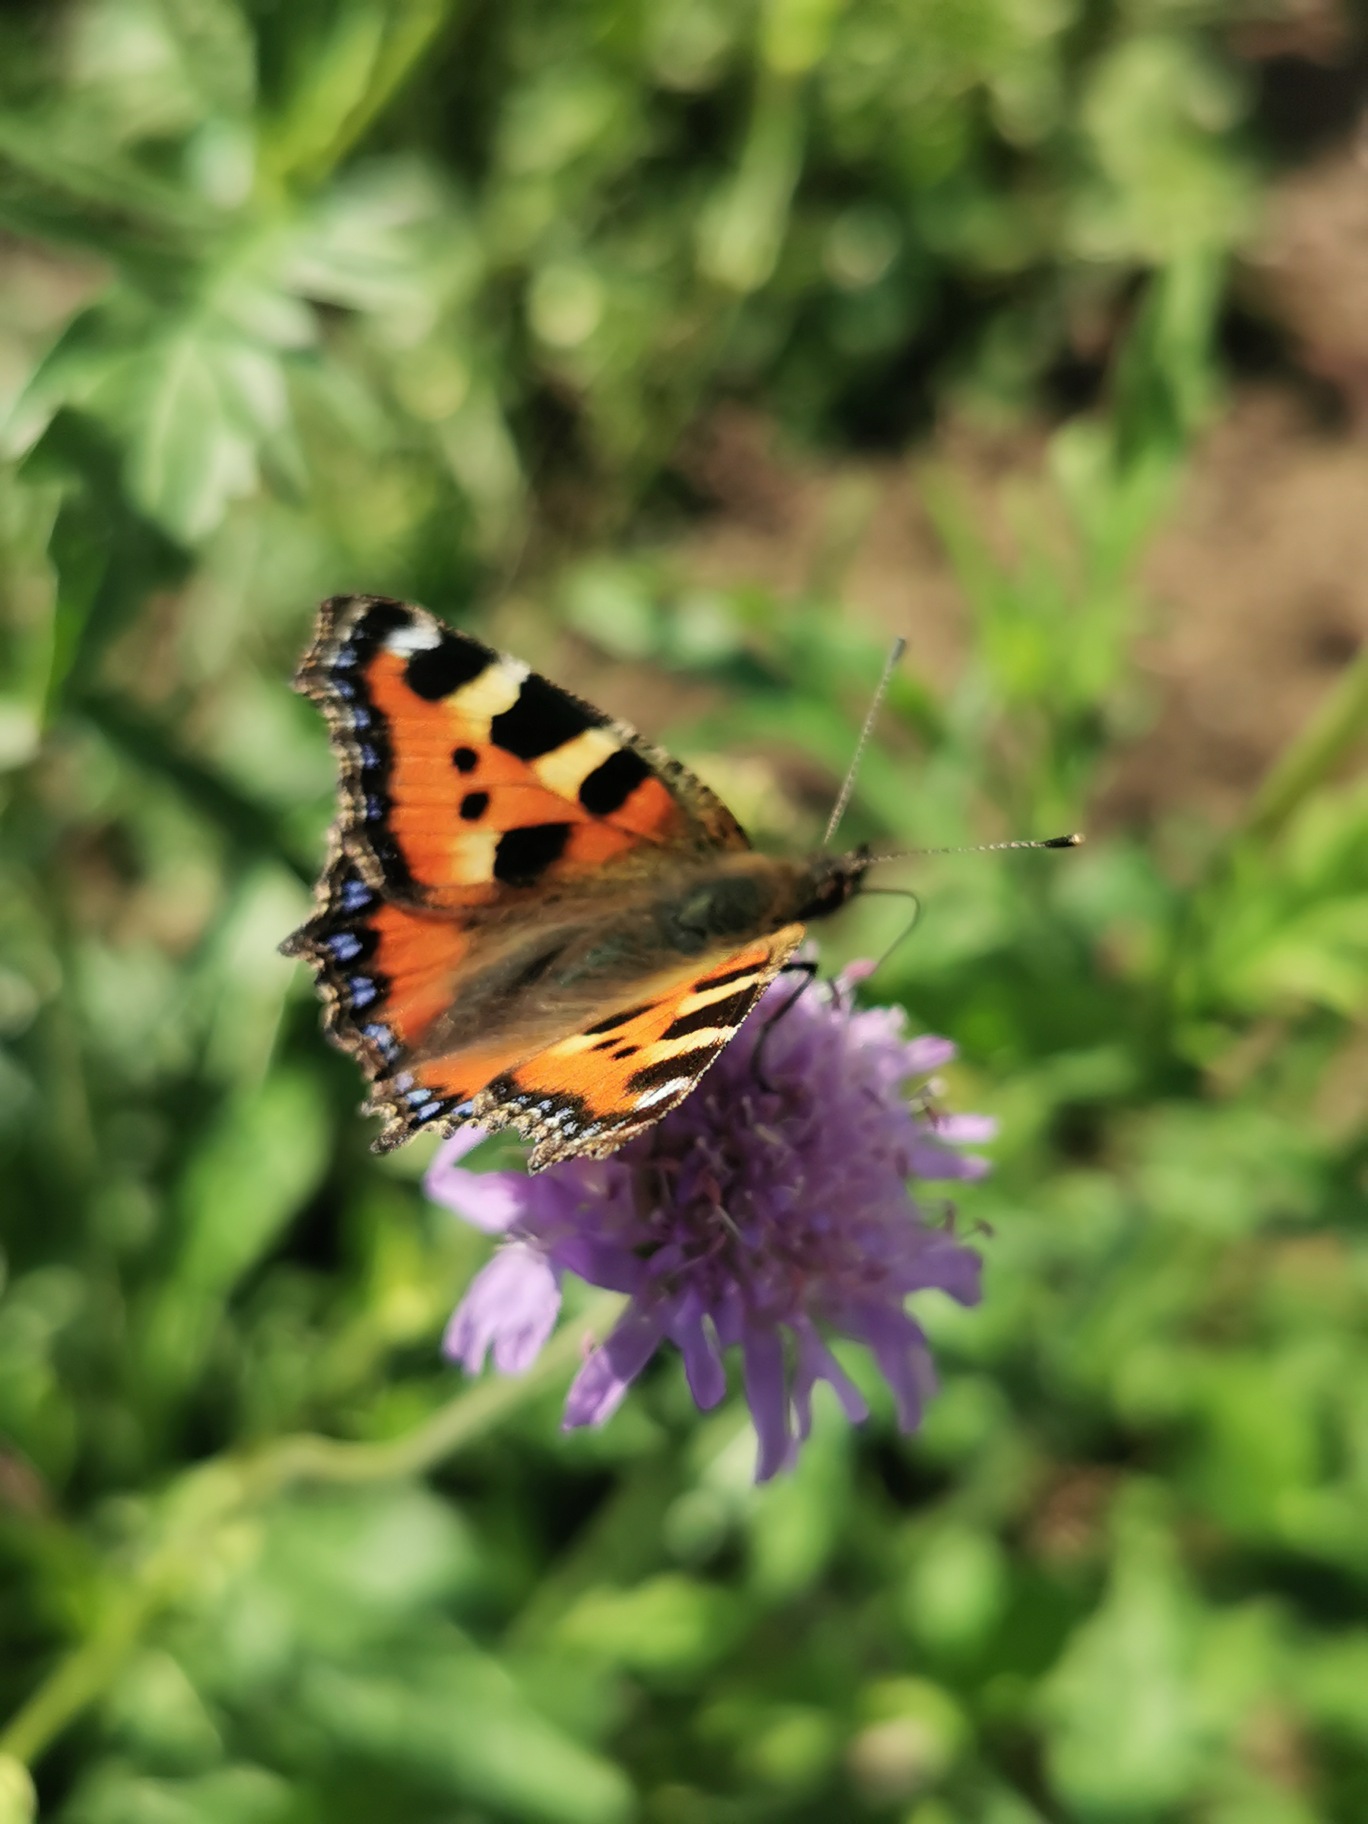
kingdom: Animalia
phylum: Arthropoda
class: Insecta
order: Lepidoptera
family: Nymphalidae
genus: Aglais
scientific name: Aglais urticae
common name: Nældens takvinge
